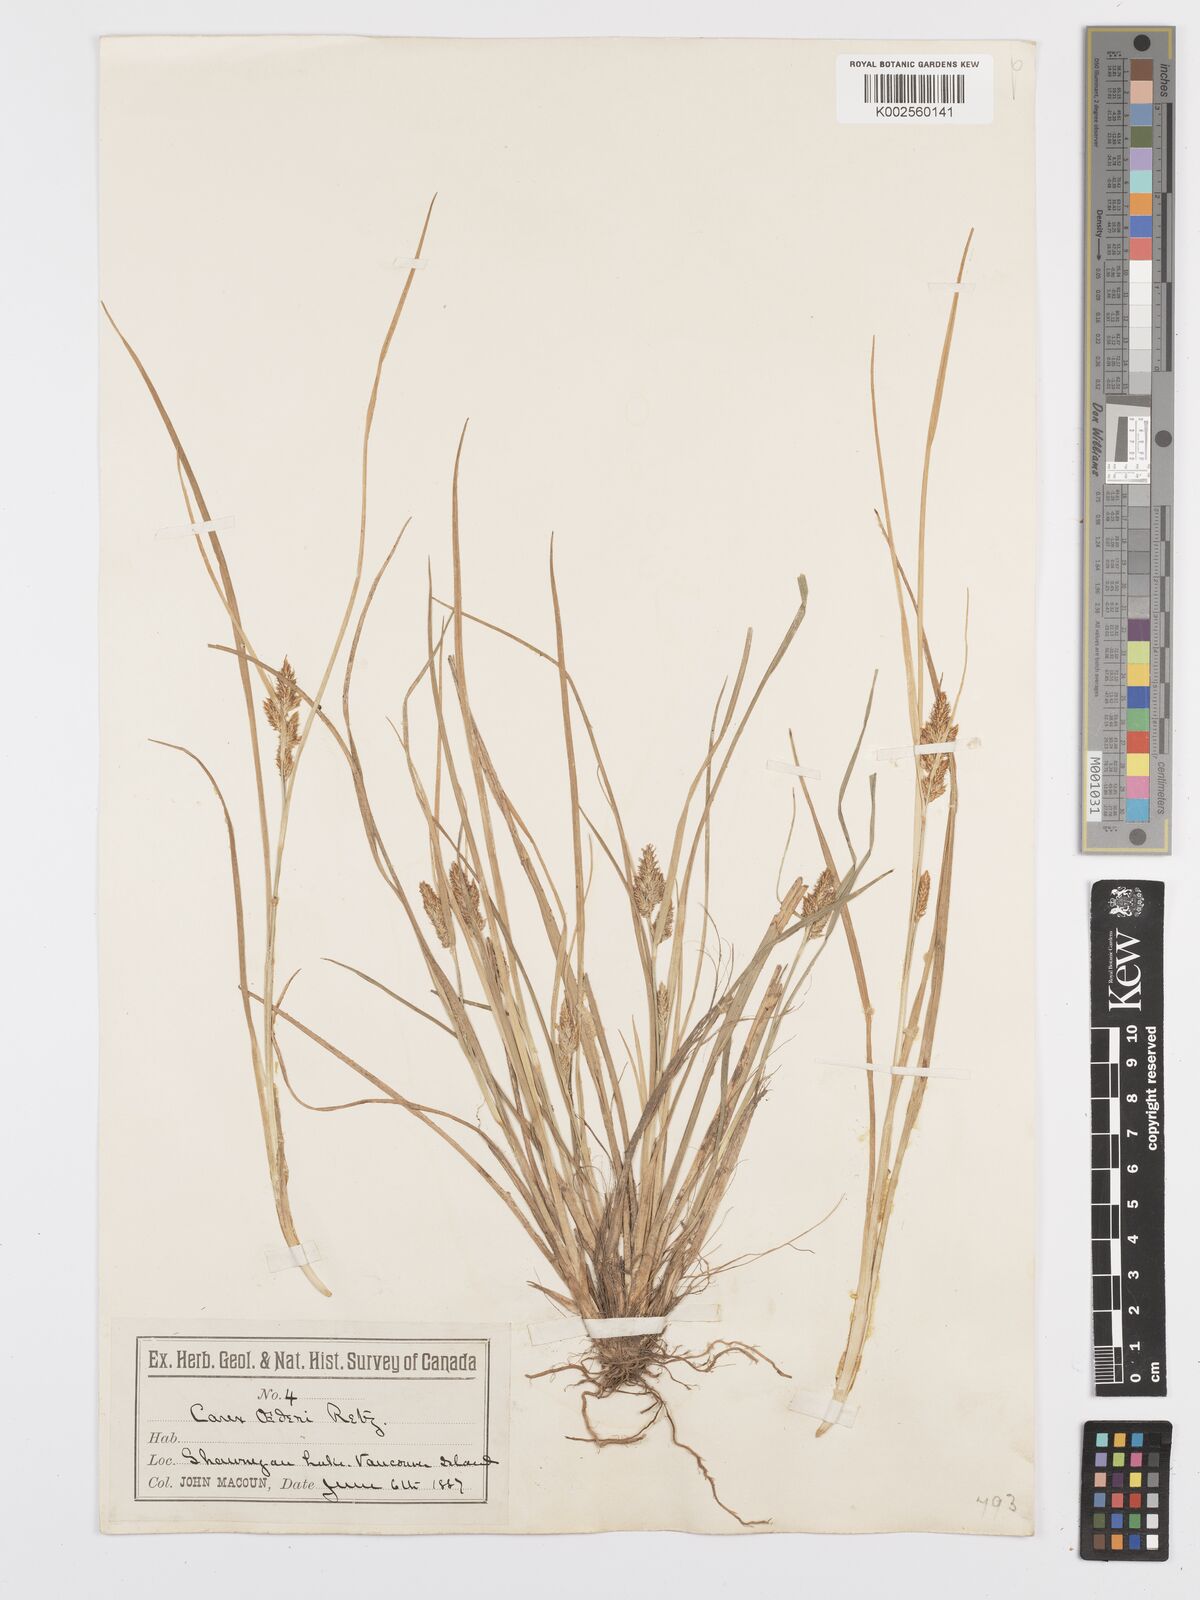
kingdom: Plantae
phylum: Tracheophyta
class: Liliopsida
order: Poales
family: Cyperaceae
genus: Carex
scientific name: Carex oederi
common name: Common & small-fruited yellow-sedge
